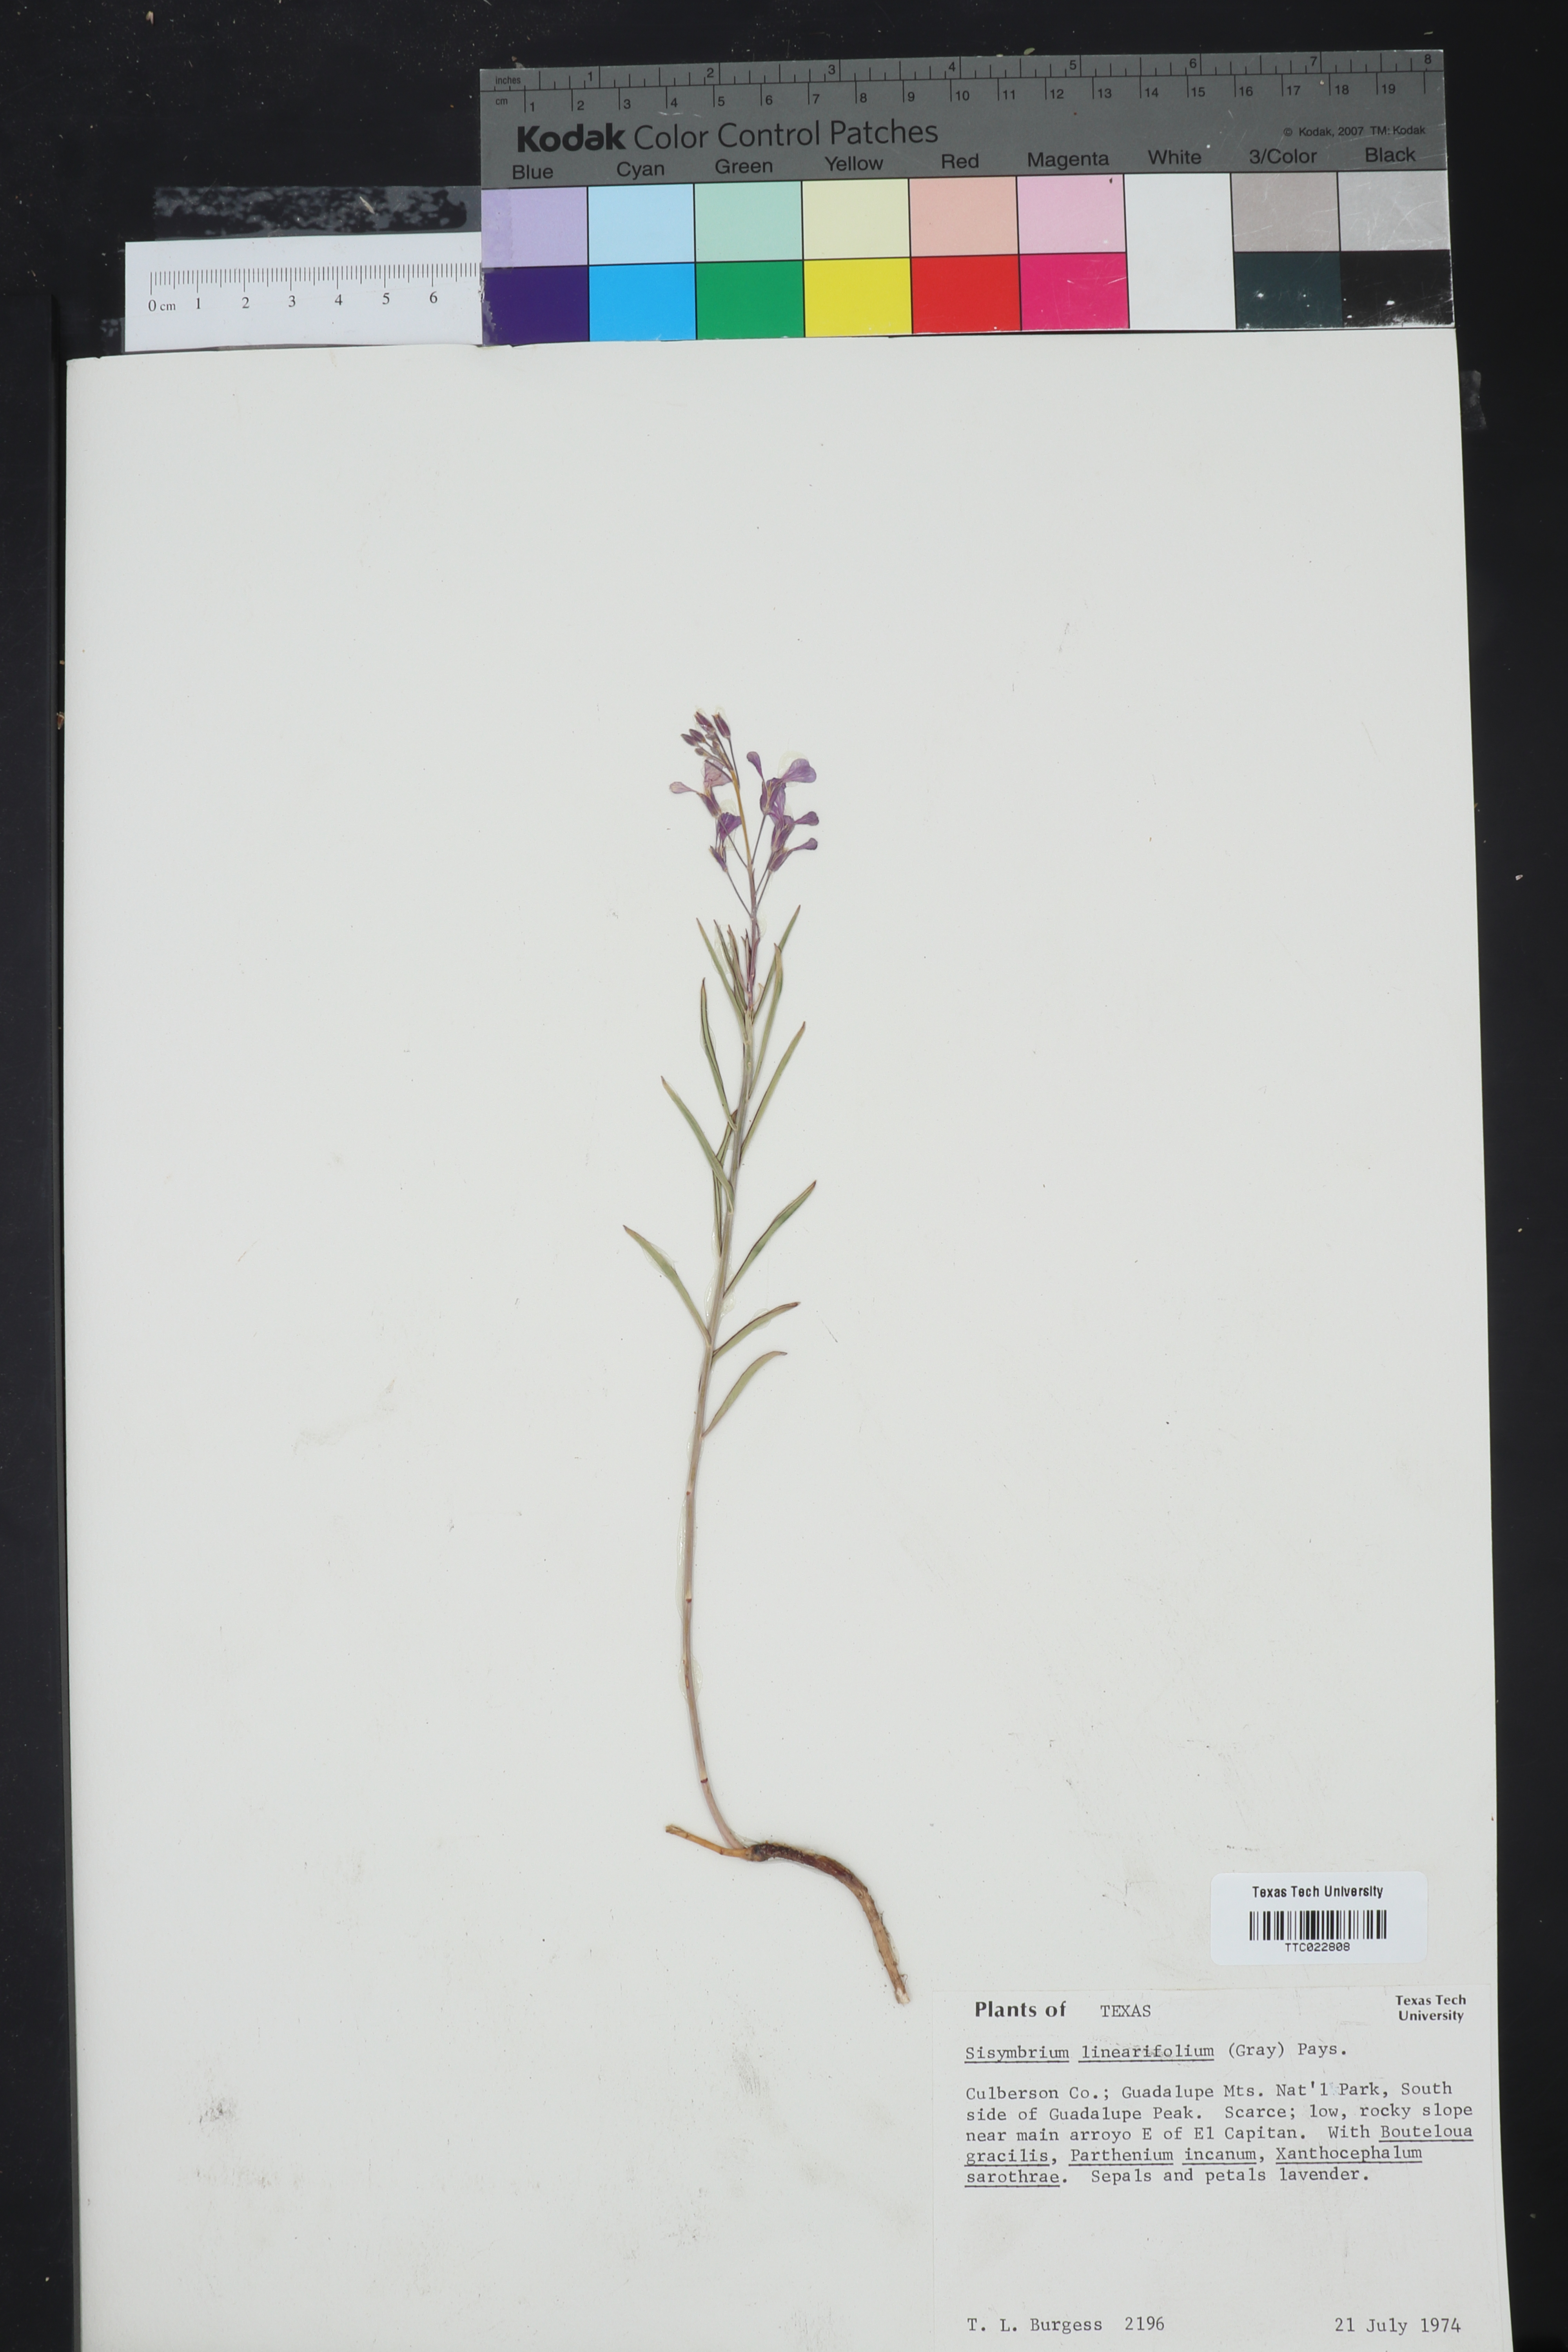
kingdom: Plantae
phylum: Tracheophyta
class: Magnoliopsida
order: Brassicales
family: Brassicaceae
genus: Hesperidanthus
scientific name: Hesperidanthus linearifolius
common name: Slim-leaf plains mustard
